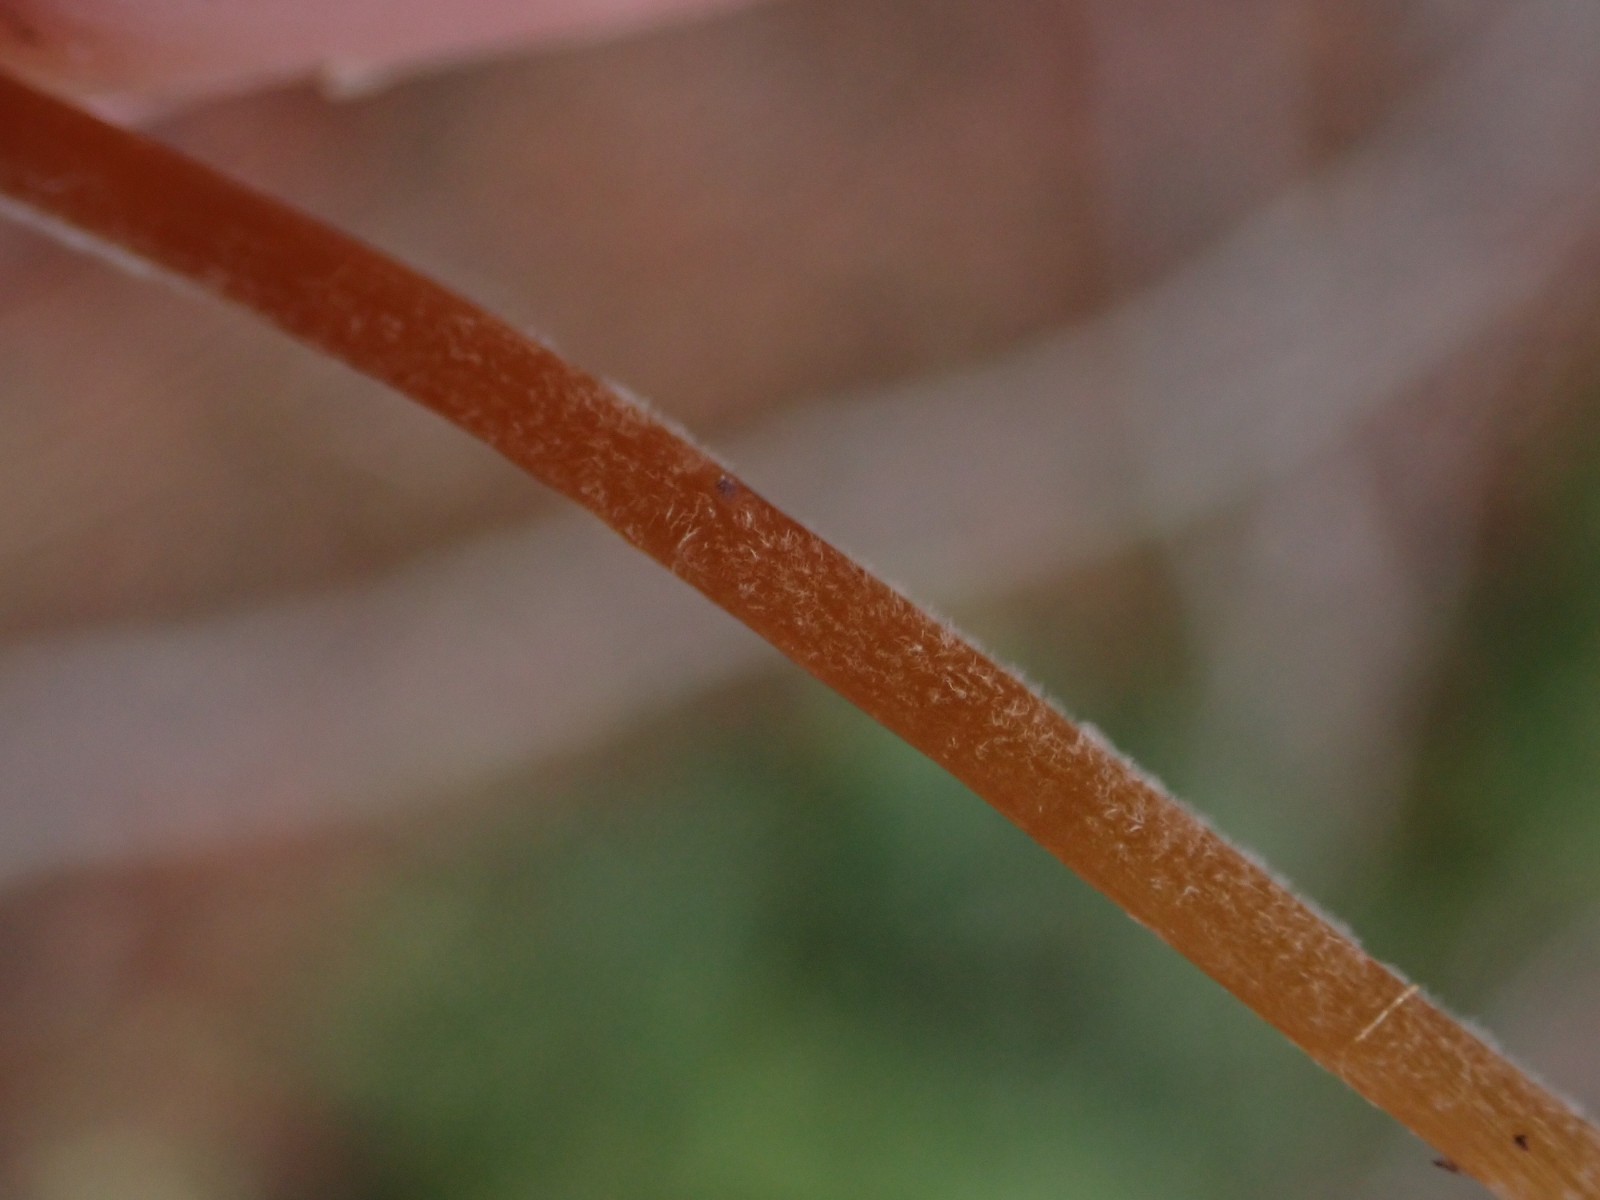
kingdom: Fungi
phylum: Basidiomycota
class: Agaricomycetes
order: Agaricales
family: Bolbitiaceae
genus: Conocybe
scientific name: Conocybe
